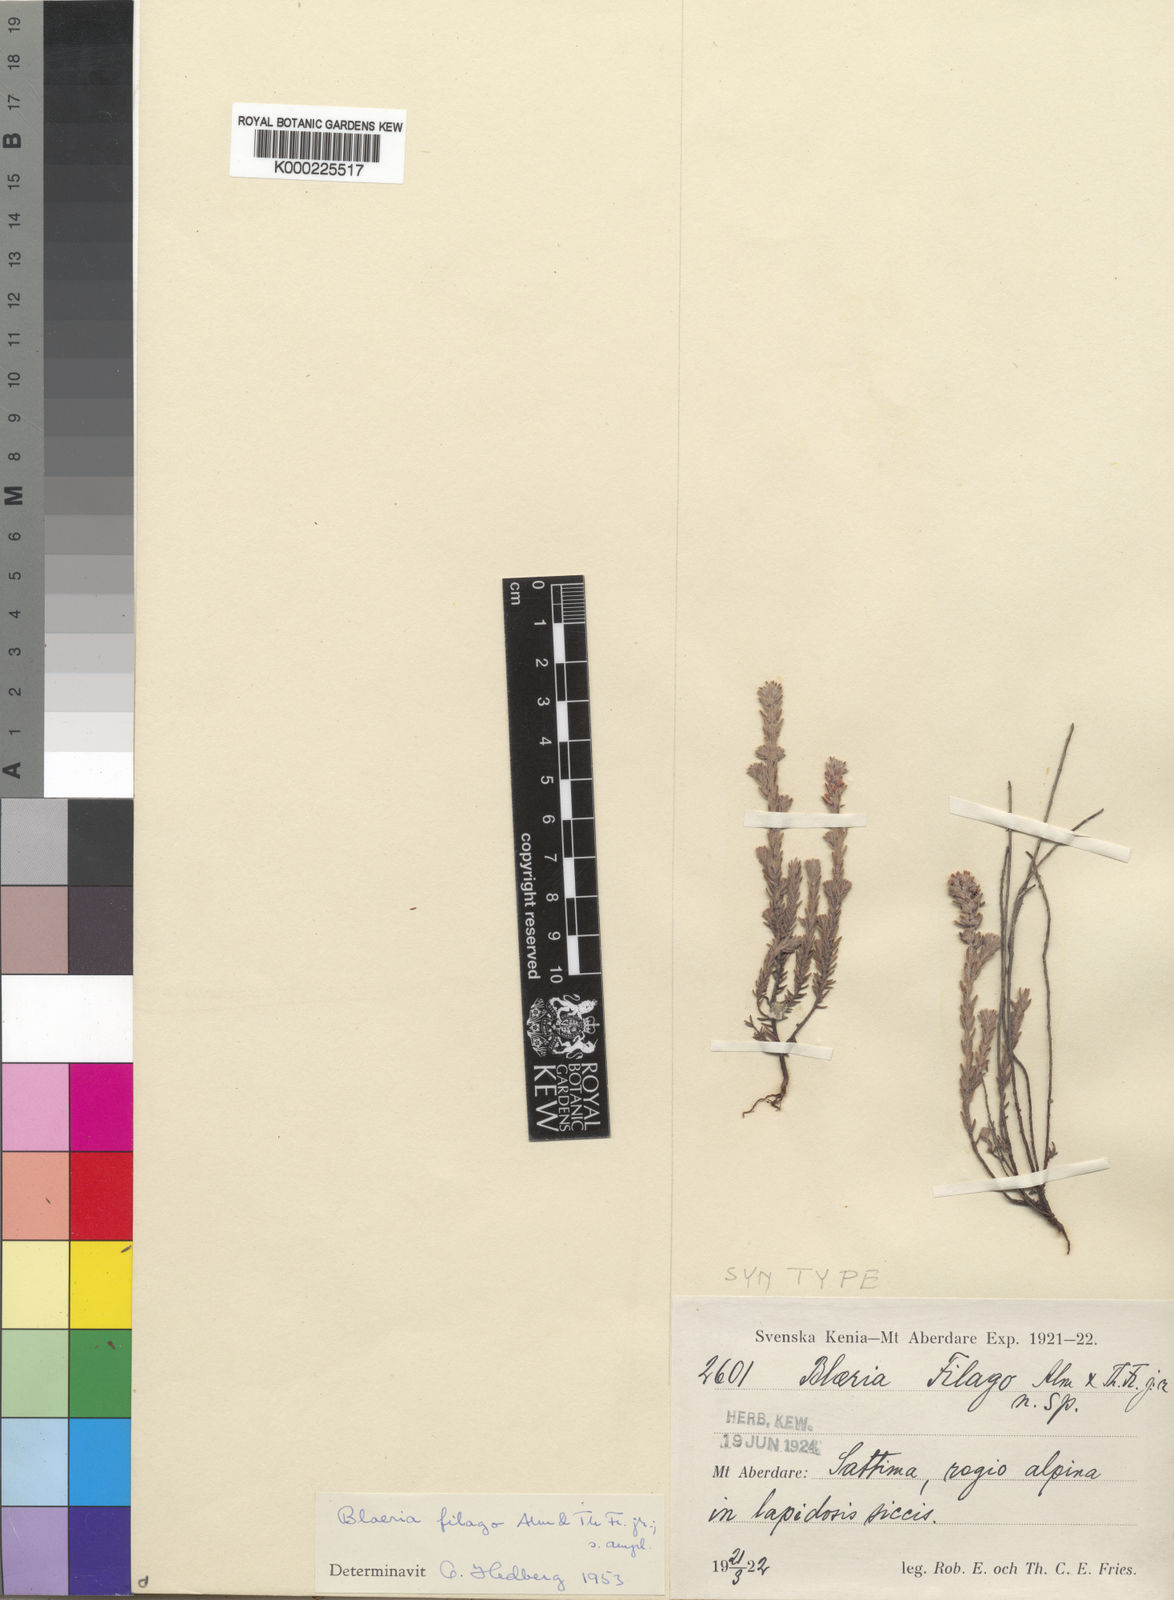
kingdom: Plantae
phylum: Tracheophyta
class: Magnoliopsida
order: Ericales
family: Ericaceae
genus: Erica
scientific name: Erica filago
